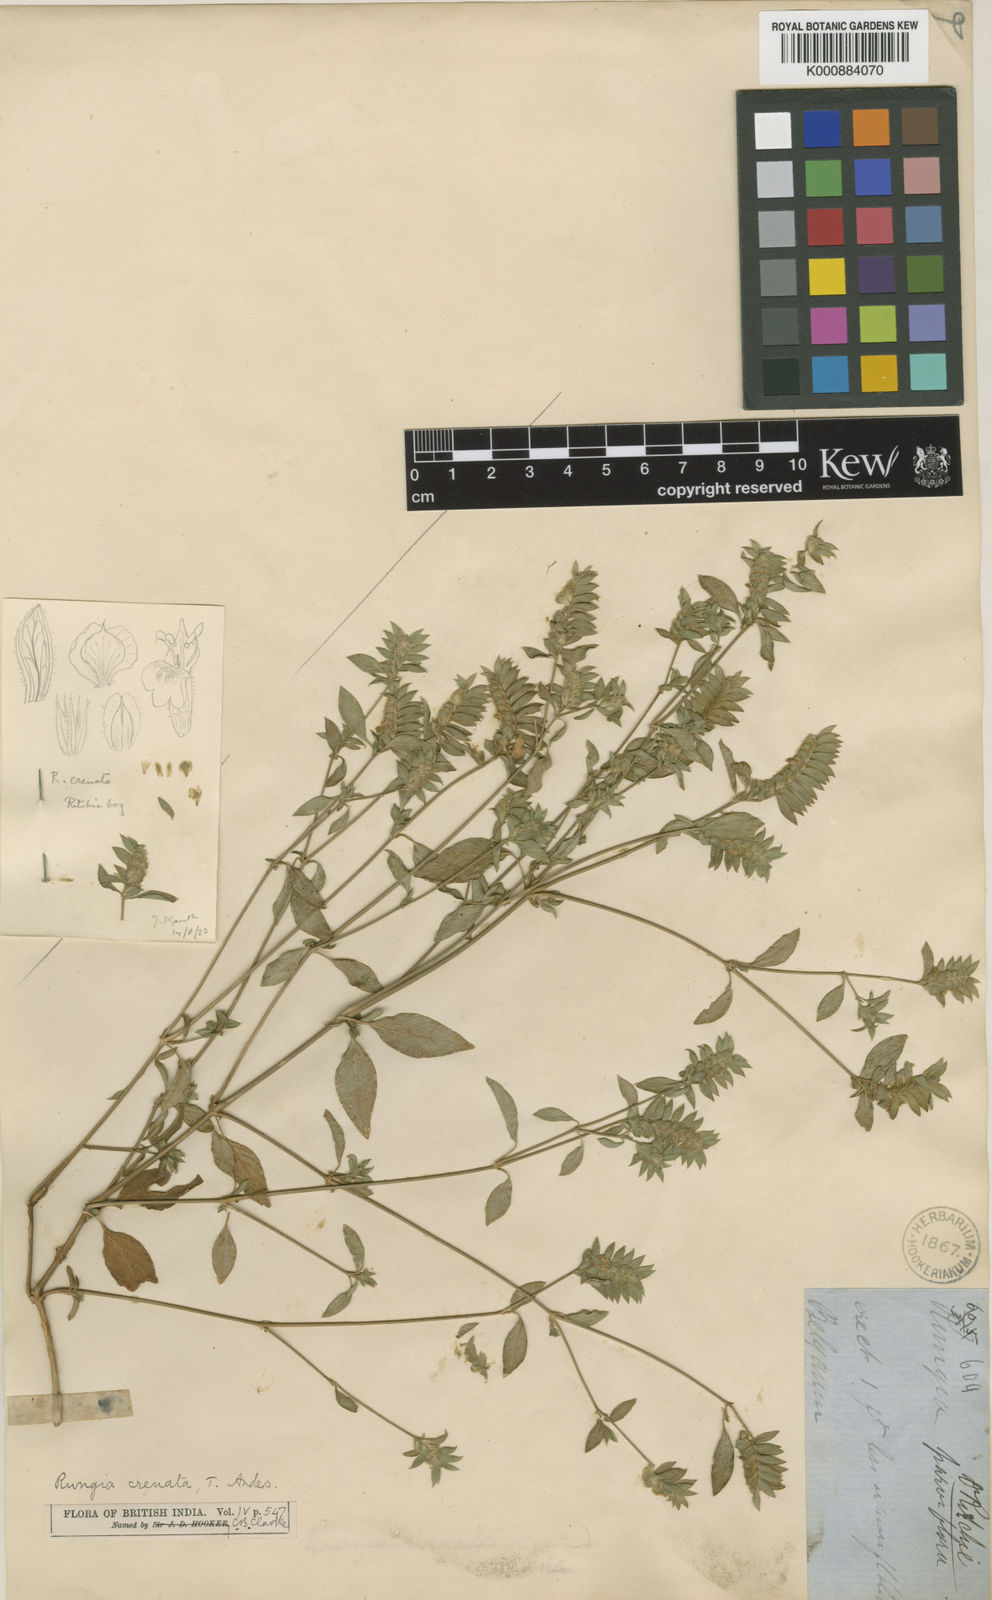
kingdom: Plantae
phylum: Tracheophyta
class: Magnoliopsida
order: Lamiales
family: Acanthaceae
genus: Justicia
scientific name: Justicia crenata
